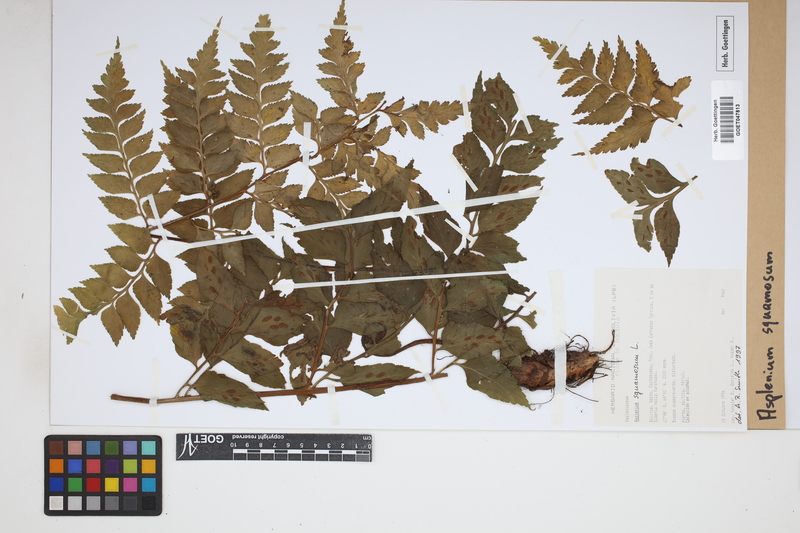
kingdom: Plantae
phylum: Tracheophyta
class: Polypodiopsida
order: Polypodiales
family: Aspleniaceae
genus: Asplenium
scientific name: Asplenium squamosum
